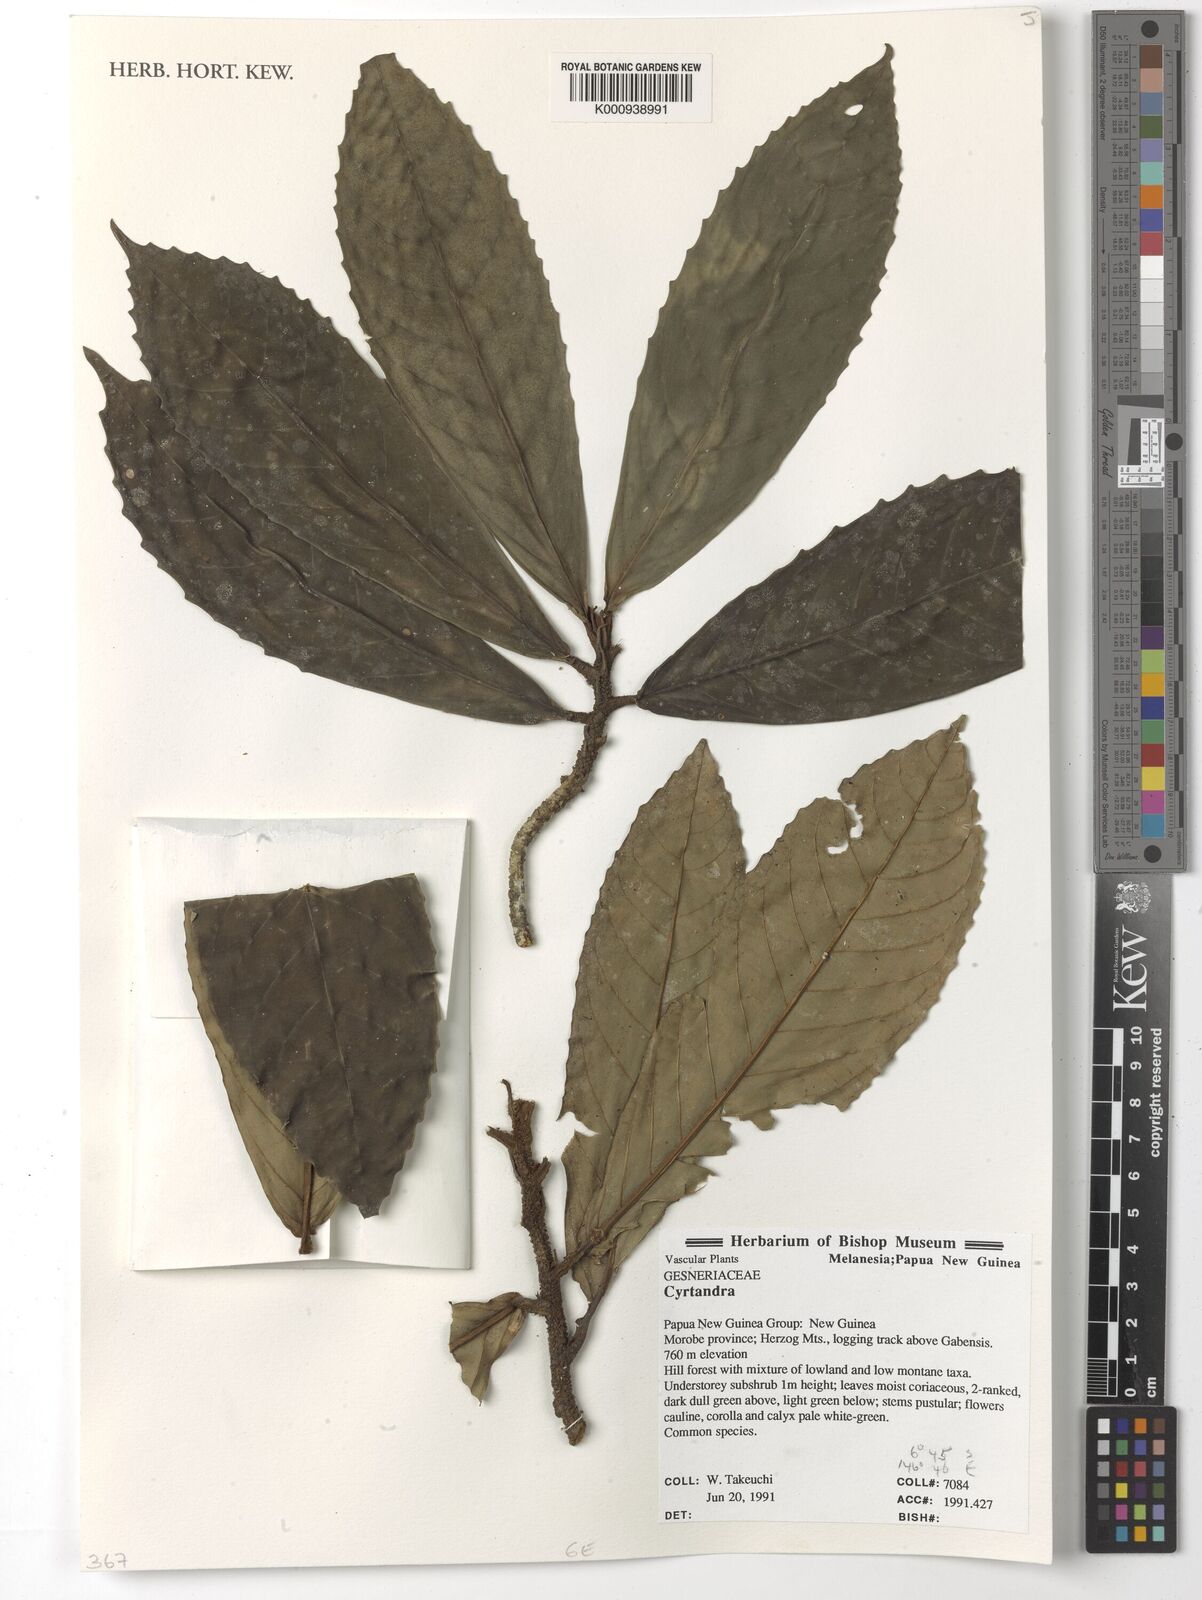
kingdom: Plantae
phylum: Tracheophyta
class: Magnoliopsida
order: Lamiales
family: Gesneriaceae
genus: Cyrtandra
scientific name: Cyrtandra
